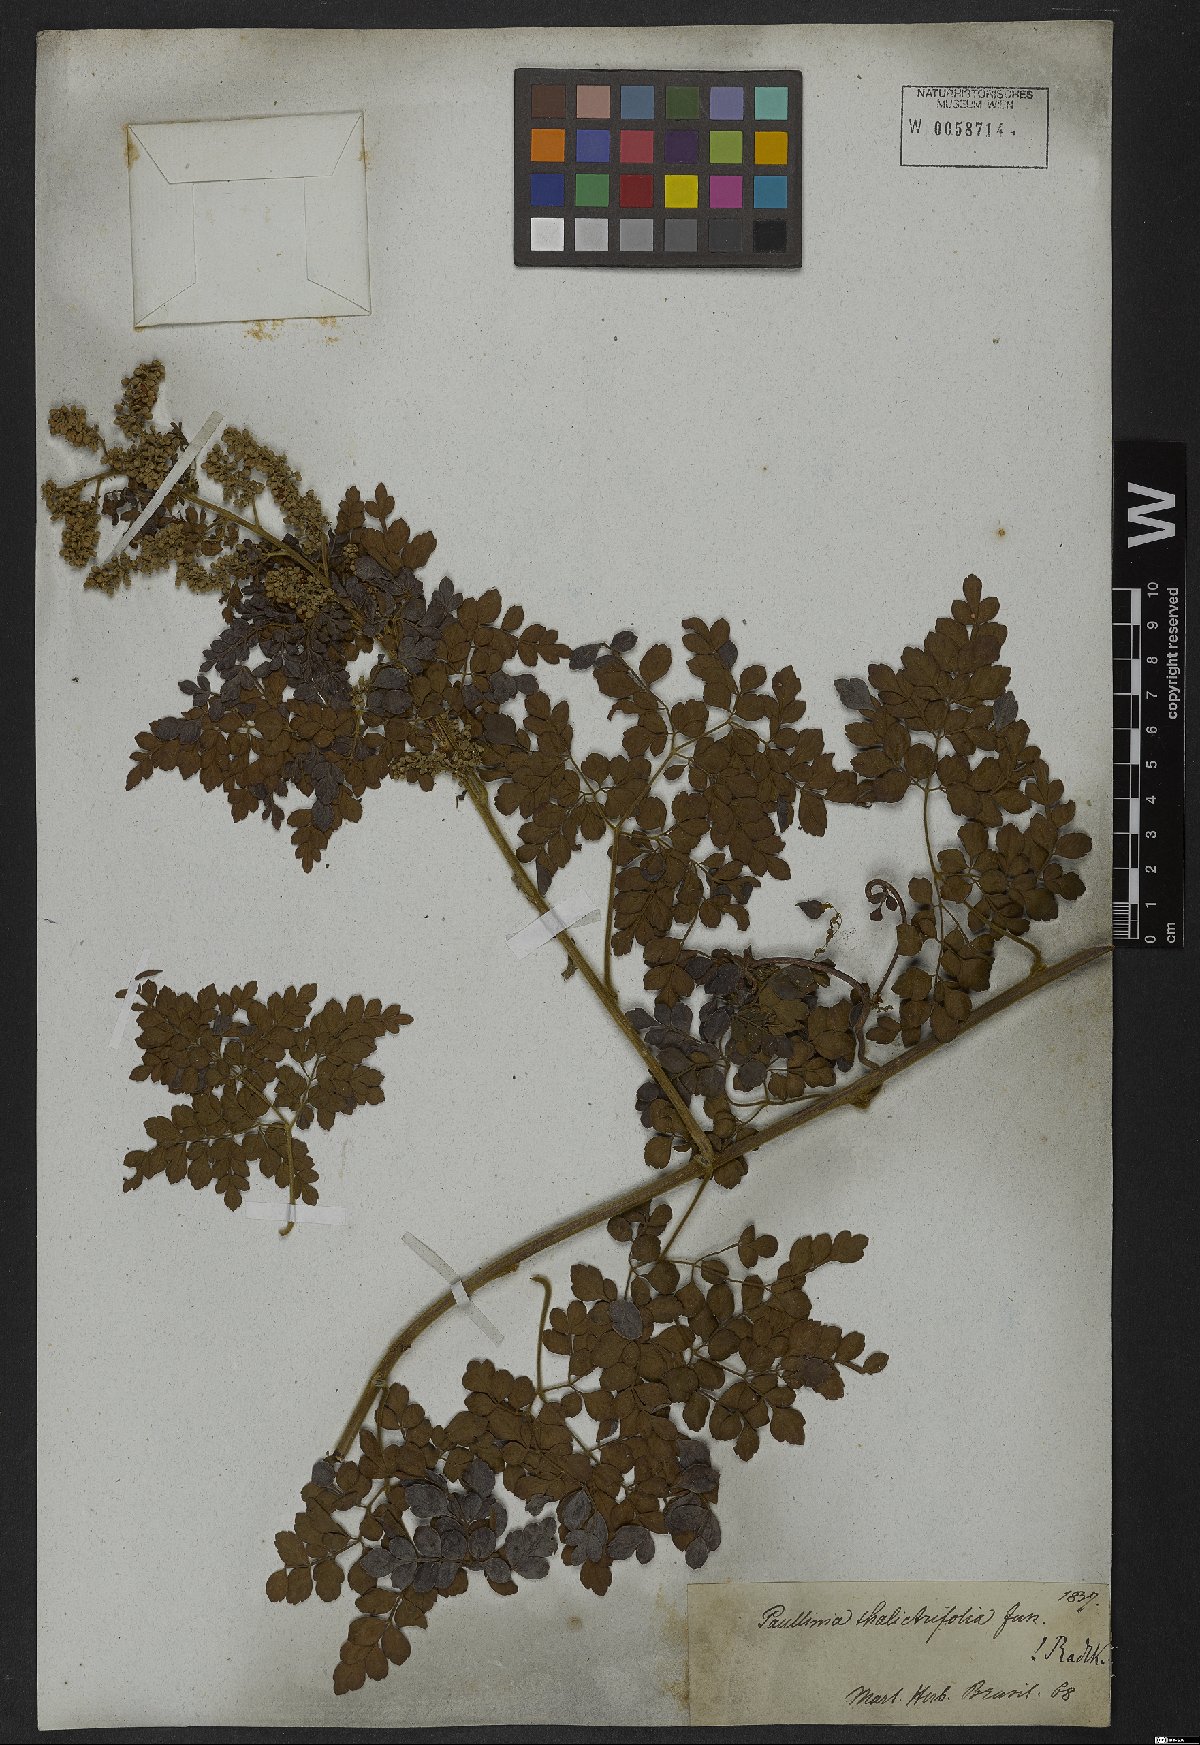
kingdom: Plantae
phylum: Tracheophyta
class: Magnoliopsida
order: Sapindales
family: Sapindaceae
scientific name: Sapindaceae
